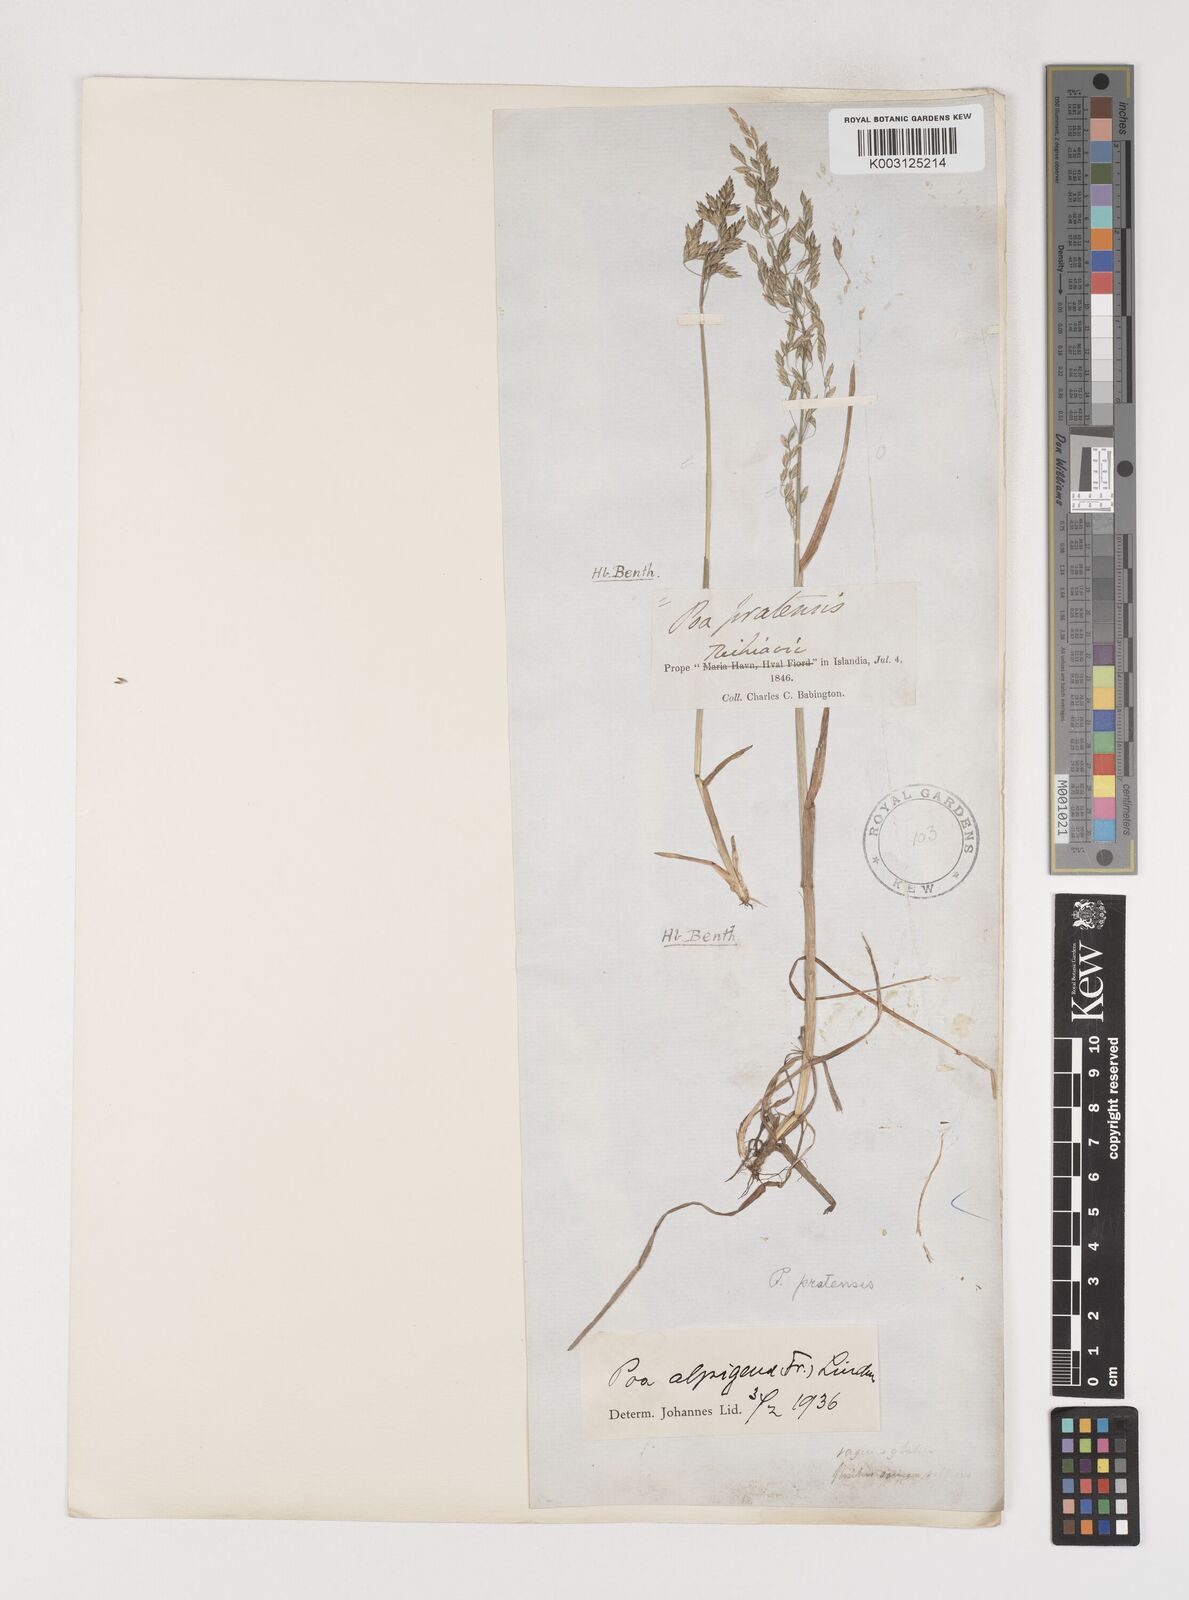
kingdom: Plantae
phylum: Tracheophyta
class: Liliopsida
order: Poales
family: Poaceae
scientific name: Poaceae
